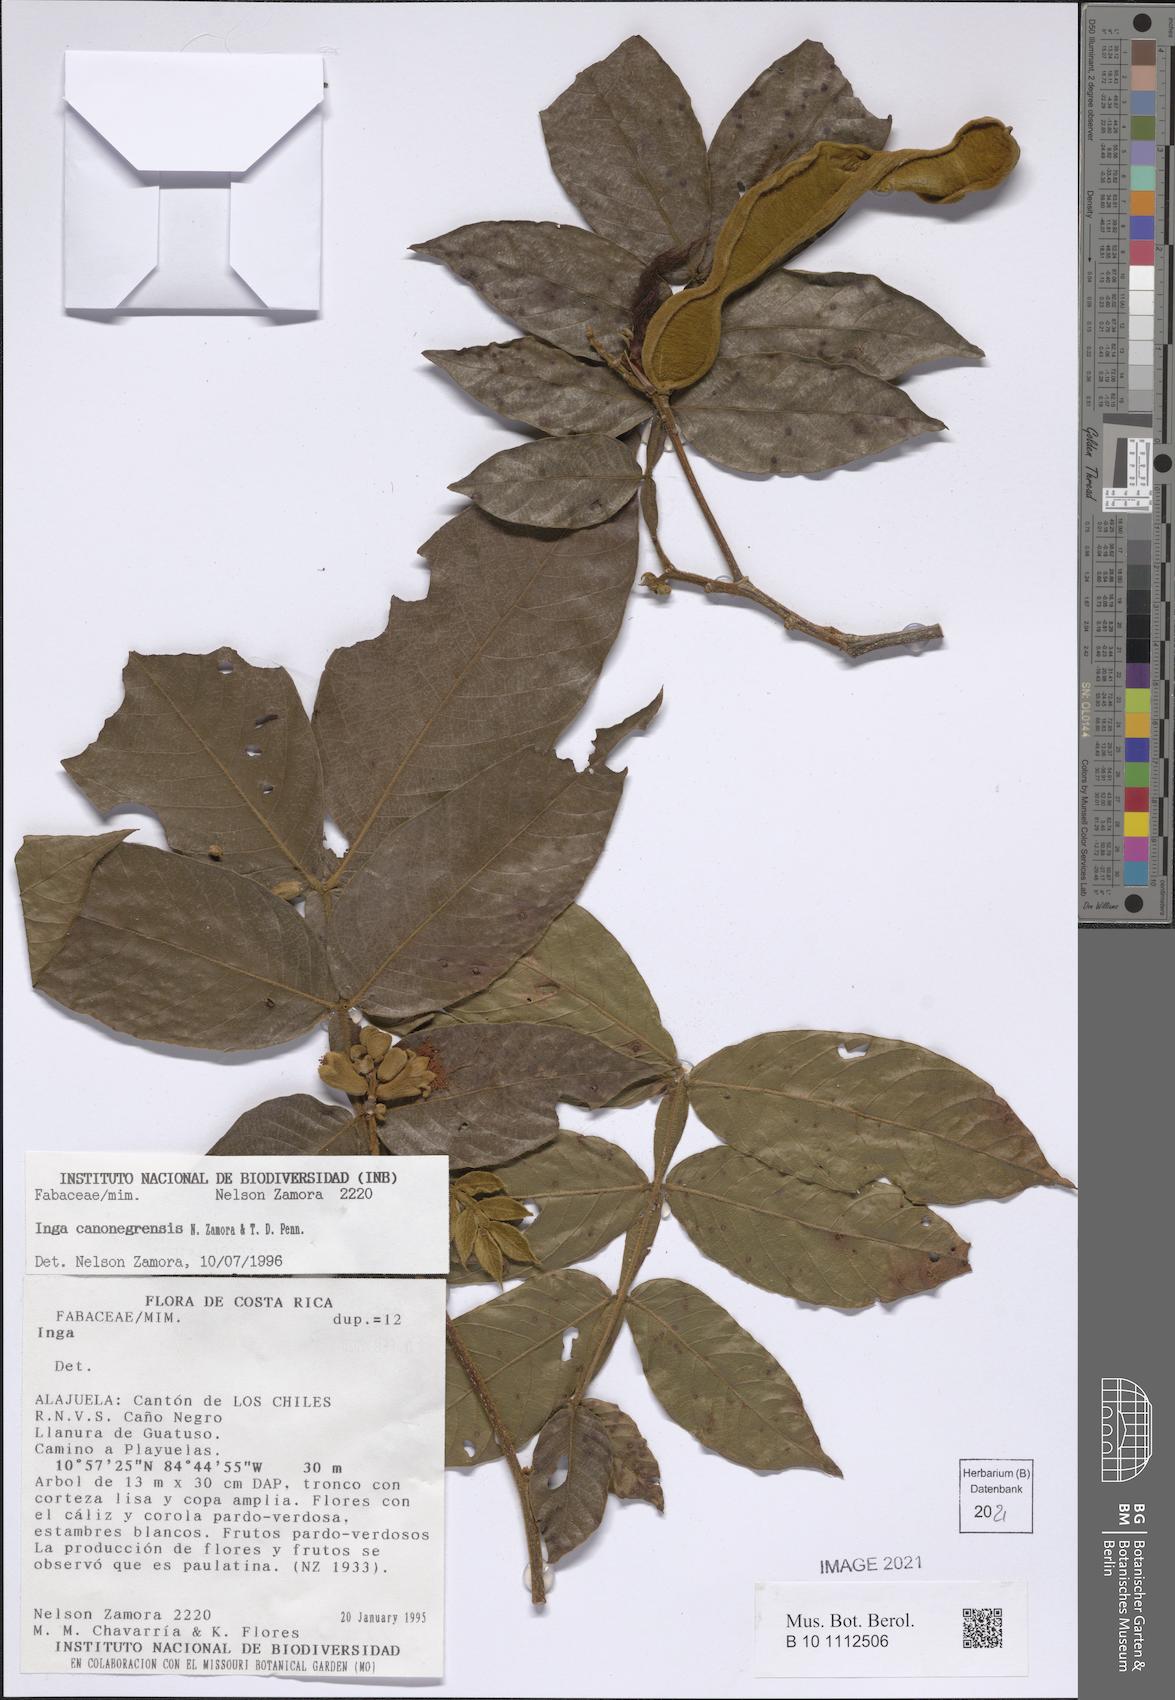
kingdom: Plantae
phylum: Tracheophyta
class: Magnoliopsida
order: Fabales
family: Fabaceae
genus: Inga
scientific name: Inga canonegrensis
